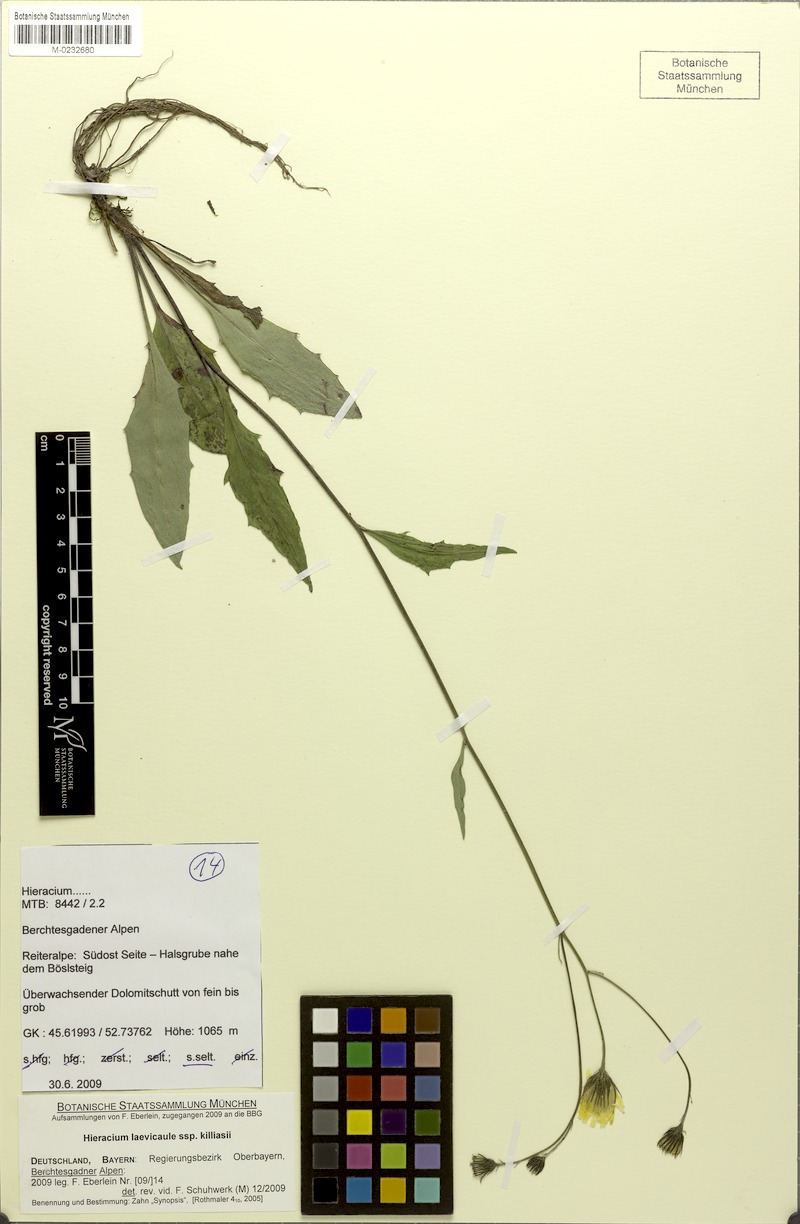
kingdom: Plantae
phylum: Tracheophyta
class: Magnoliopsida
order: Asterales
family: Asteraceae
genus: Hieracium
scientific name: Hieracium
